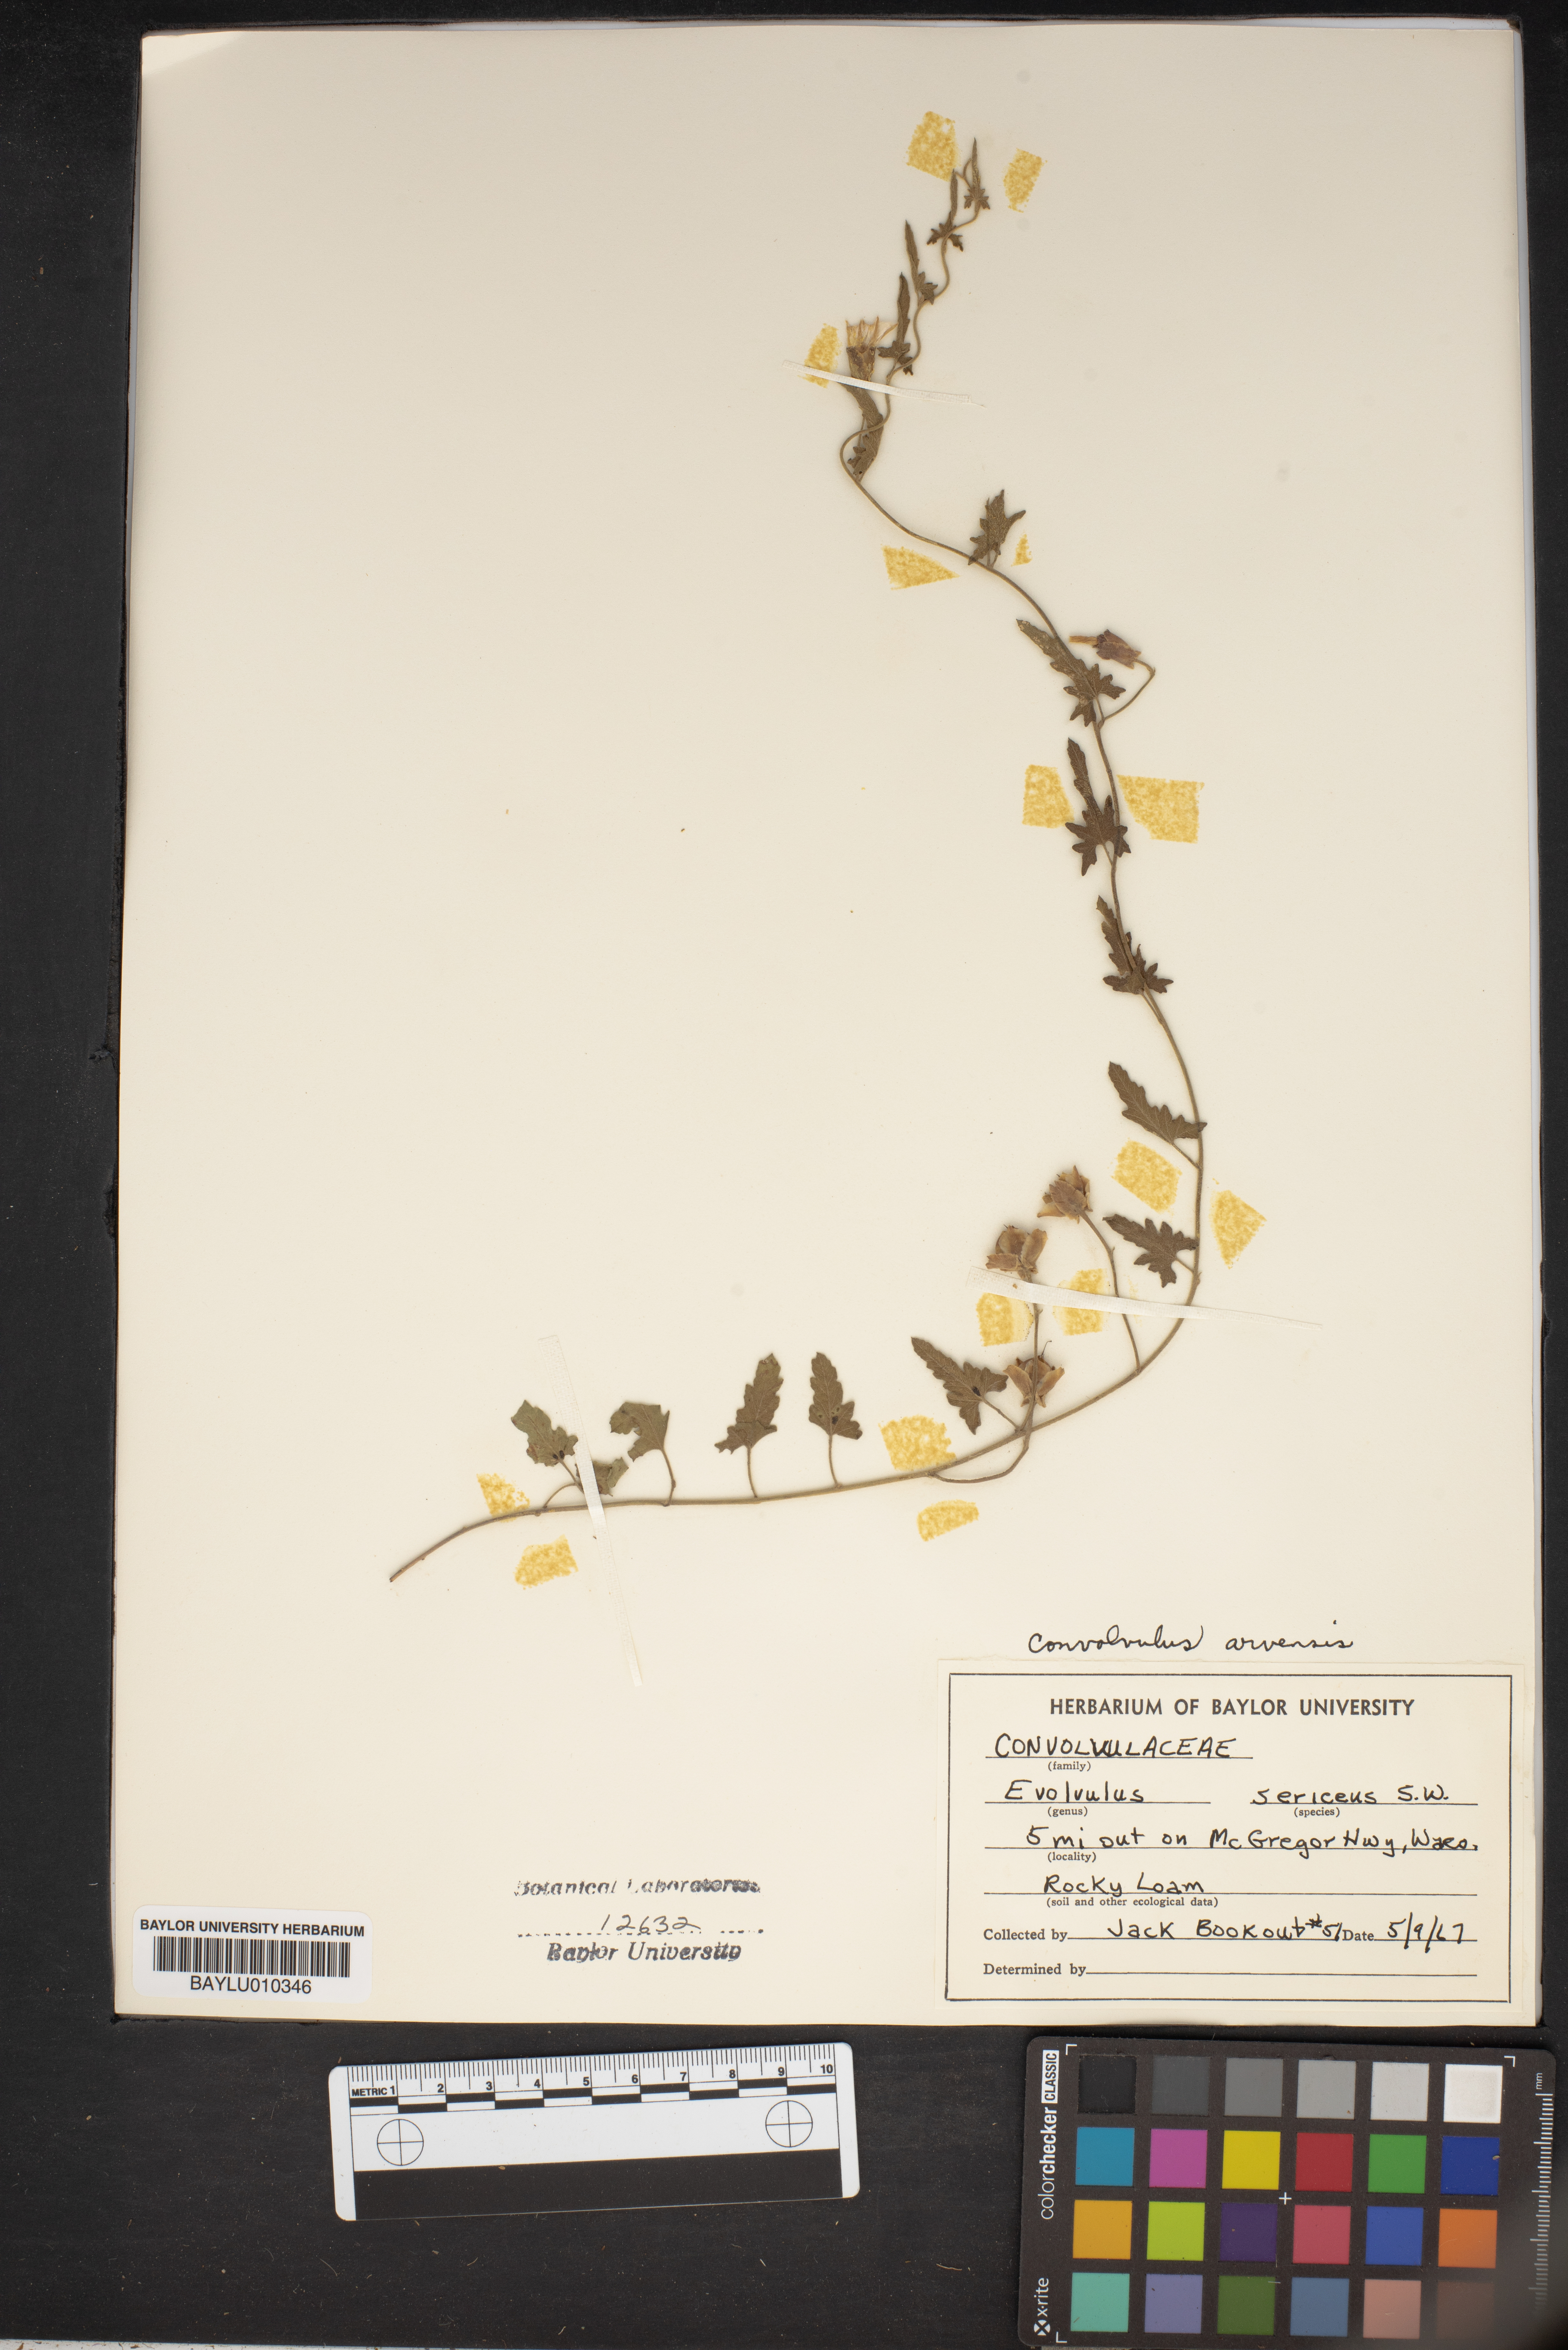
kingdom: Plantae
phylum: Tracheophyta
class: Magnoliopsida
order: Solanales
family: Convolvulaceae
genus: Evolvulus
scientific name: Evolvulus sericeus
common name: Blue dots
